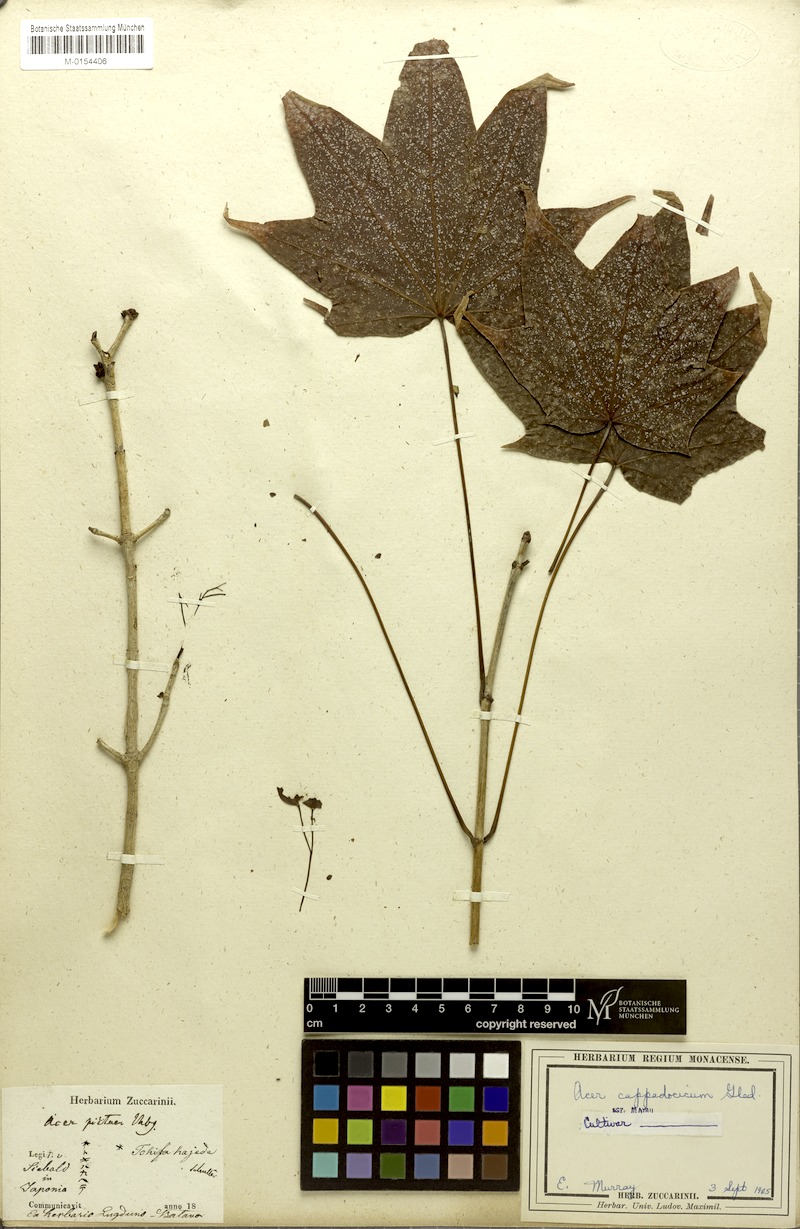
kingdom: Plantae
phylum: Tracheophyta
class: Magnoliopsida
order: Sapindales
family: Sapindaceae
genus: Acer
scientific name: Acer cappadocicum
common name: Cappadocian maple
